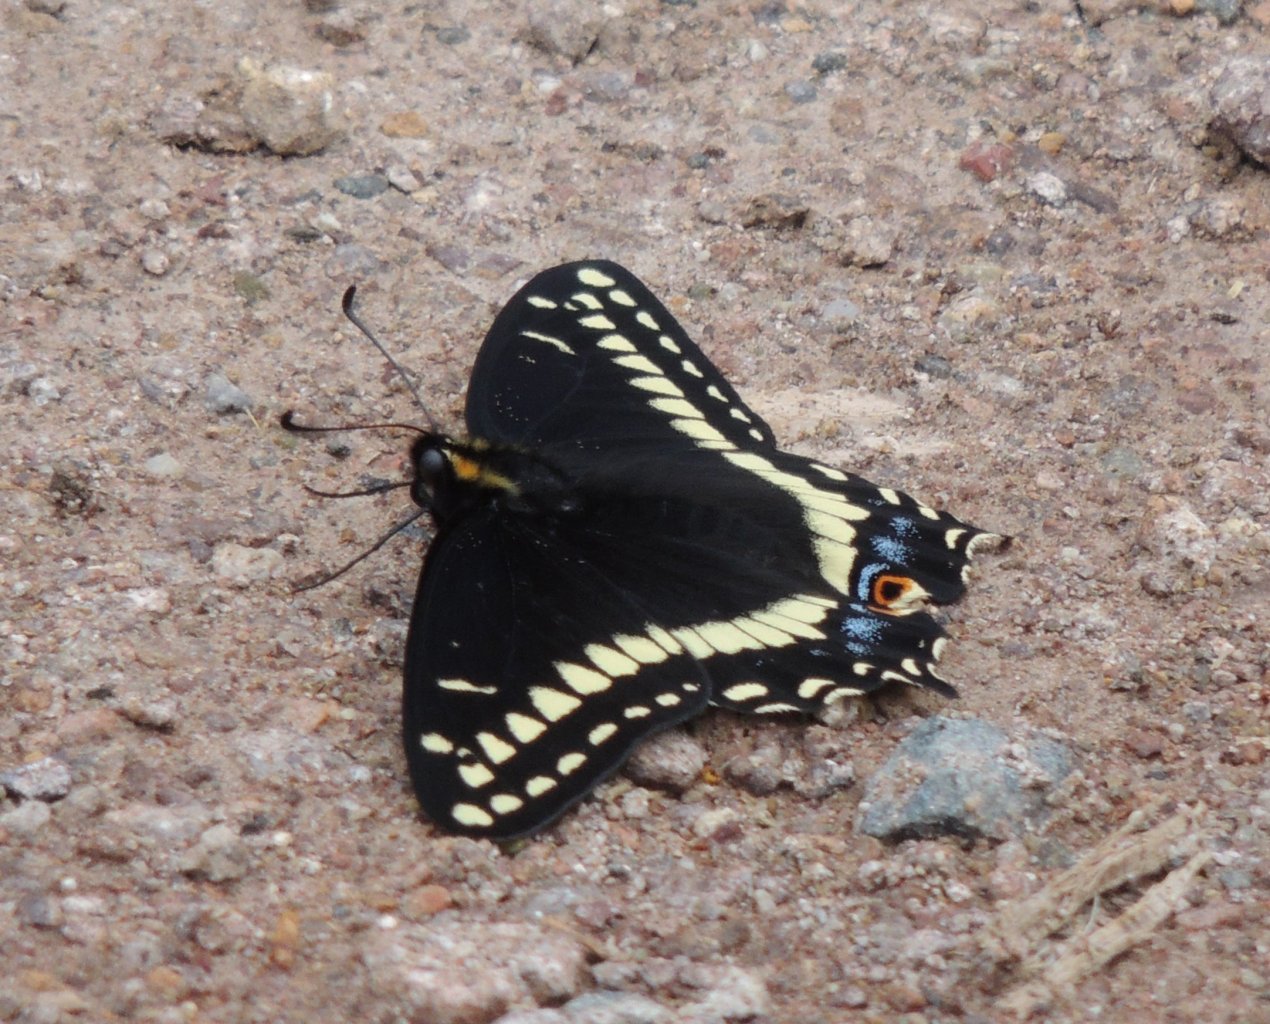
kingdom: Animalia
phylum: Arthropoda
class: Insecta
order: Lepidoptera
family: Papilionidae
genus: Papilio
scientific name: Papilio indra
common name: Indra Swallowtail
